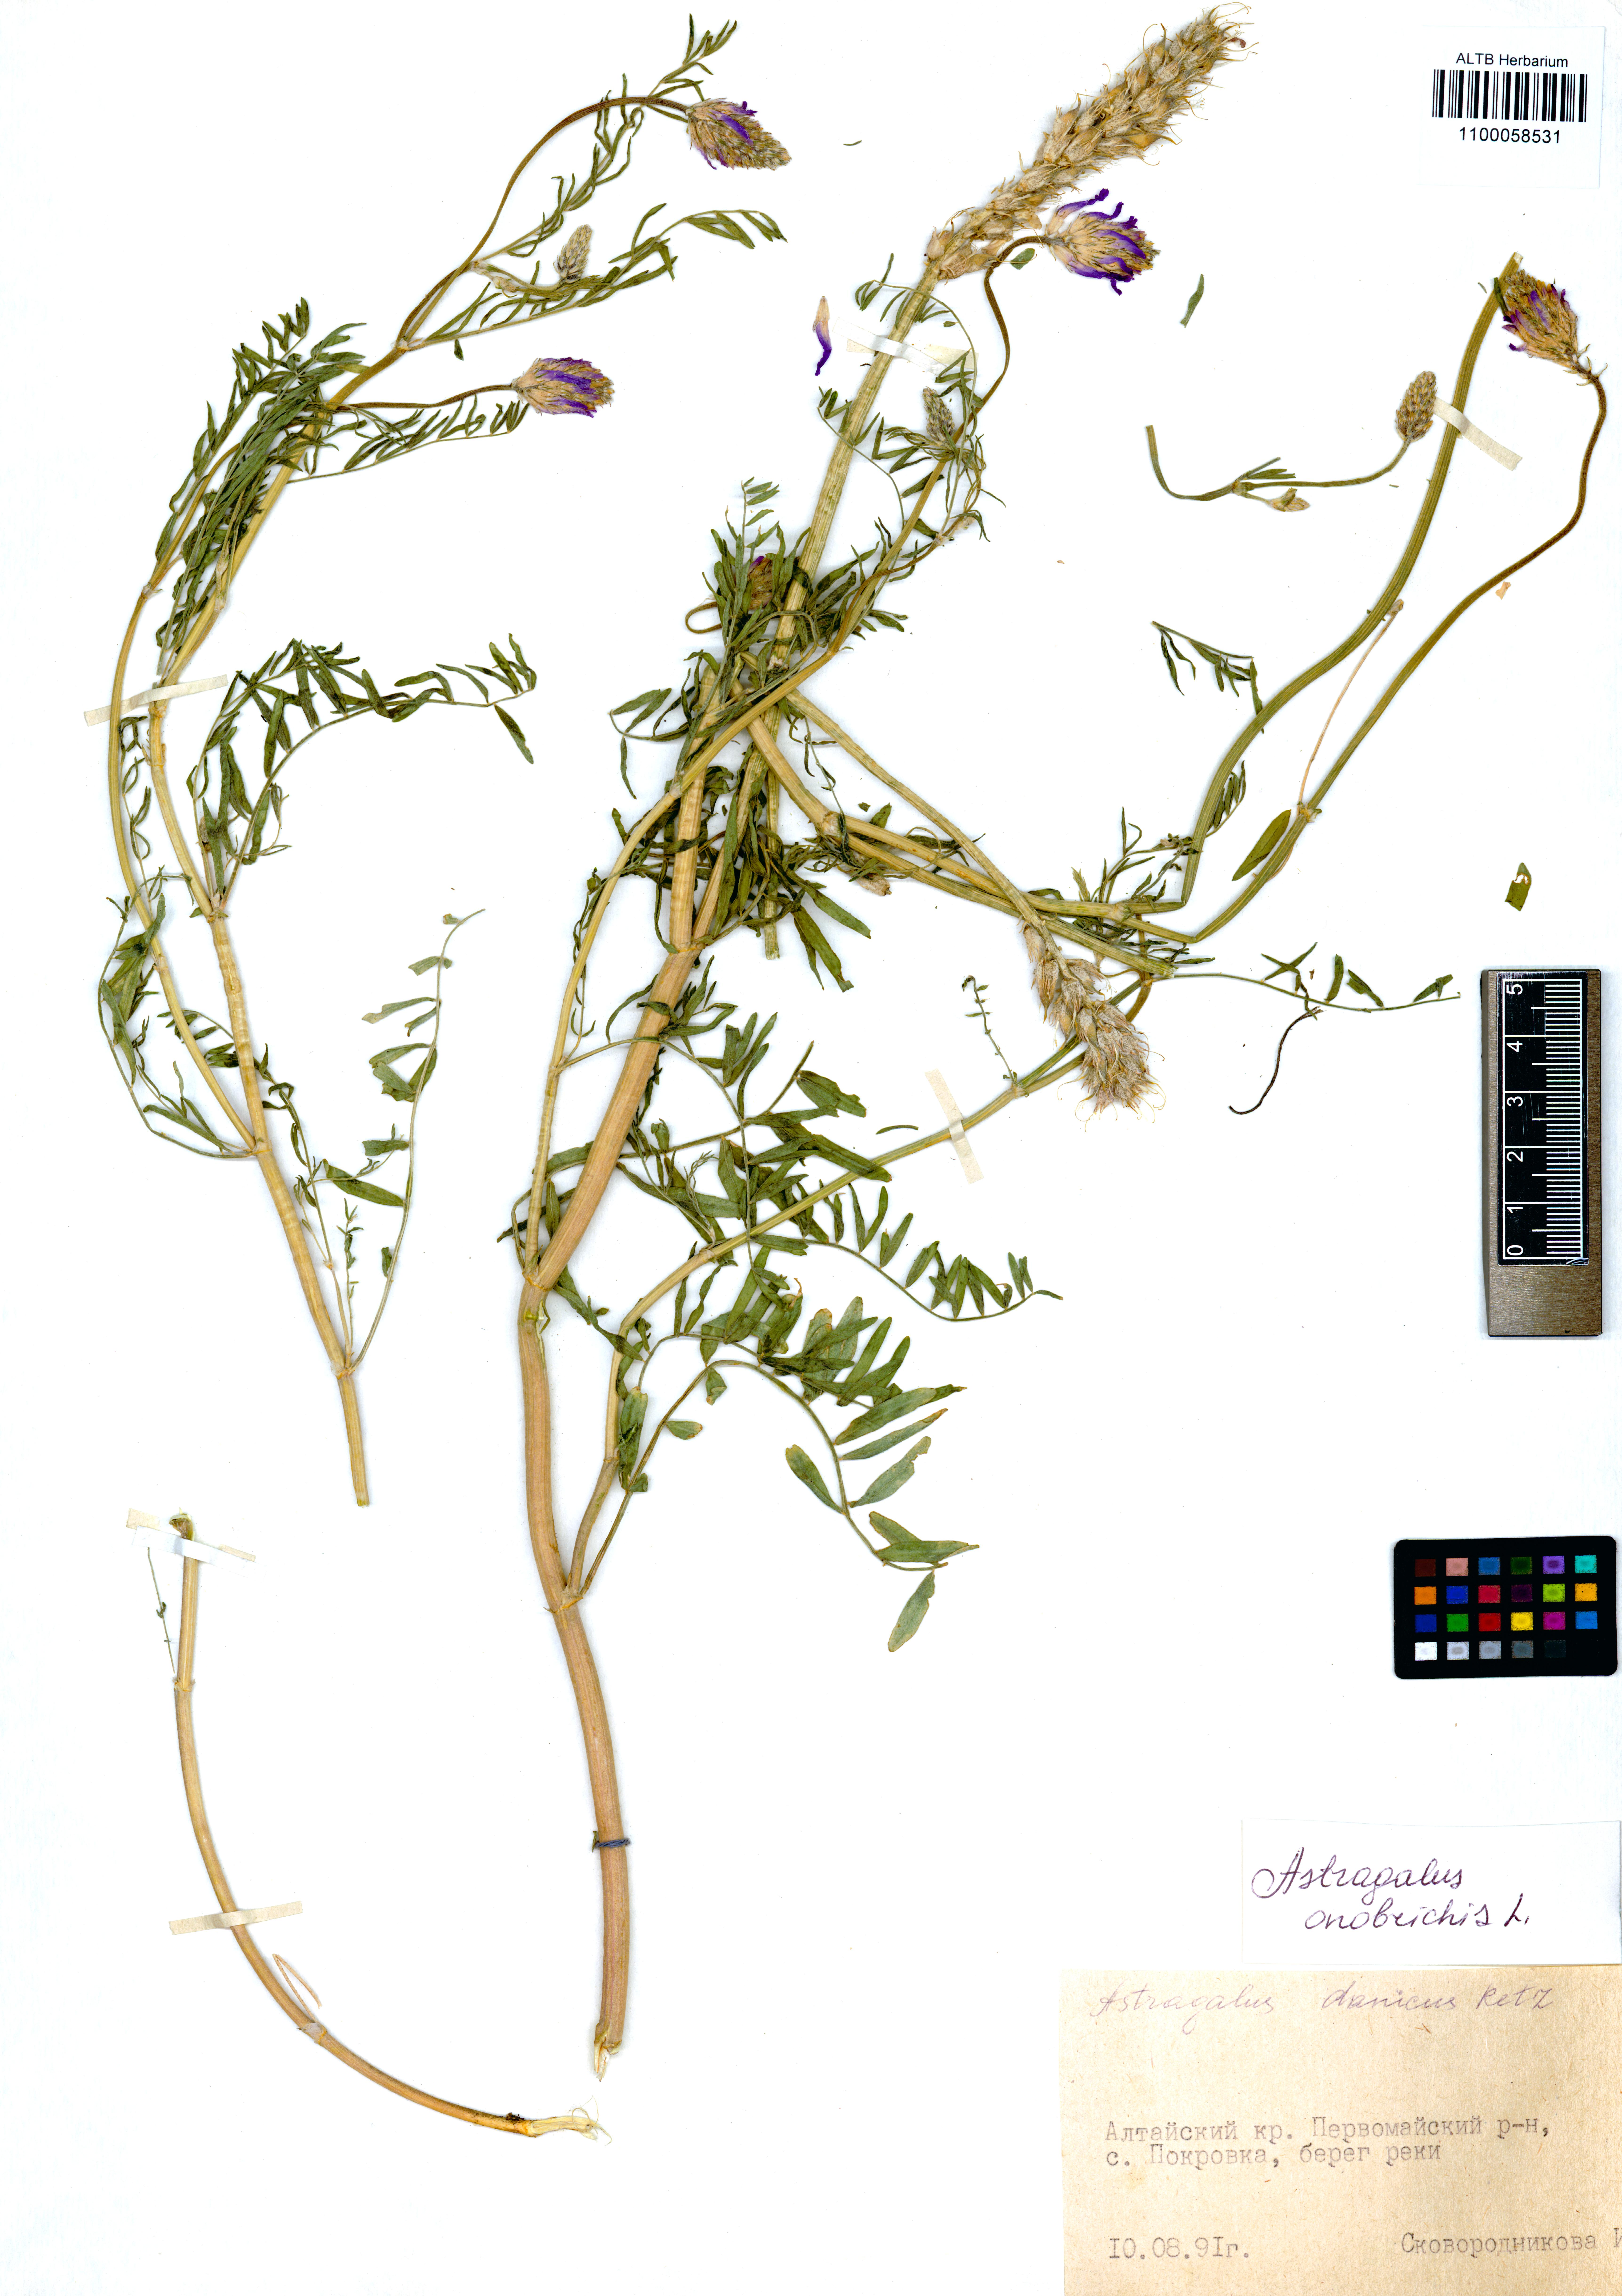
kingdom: Plantae
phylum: Tracheophyta
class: Magnoliopsida
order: Fabales
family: Fabaceae
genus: Astragalus
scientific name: Astragalus onobrychis
